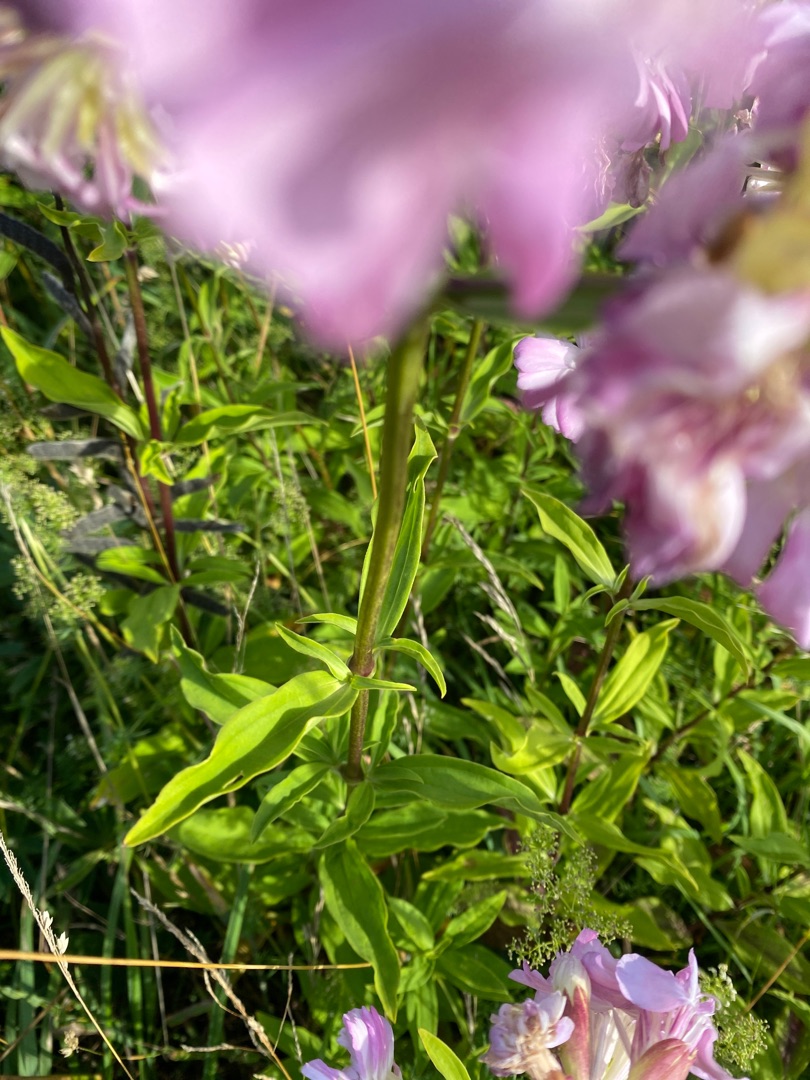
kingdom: Plantae
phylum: Tracheophyta
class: Magnoliopsida
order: Caryophyllales
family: Caryophyllaceae
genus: Saponaria
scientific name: Saponaria officinalis
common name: Sæbeurt
